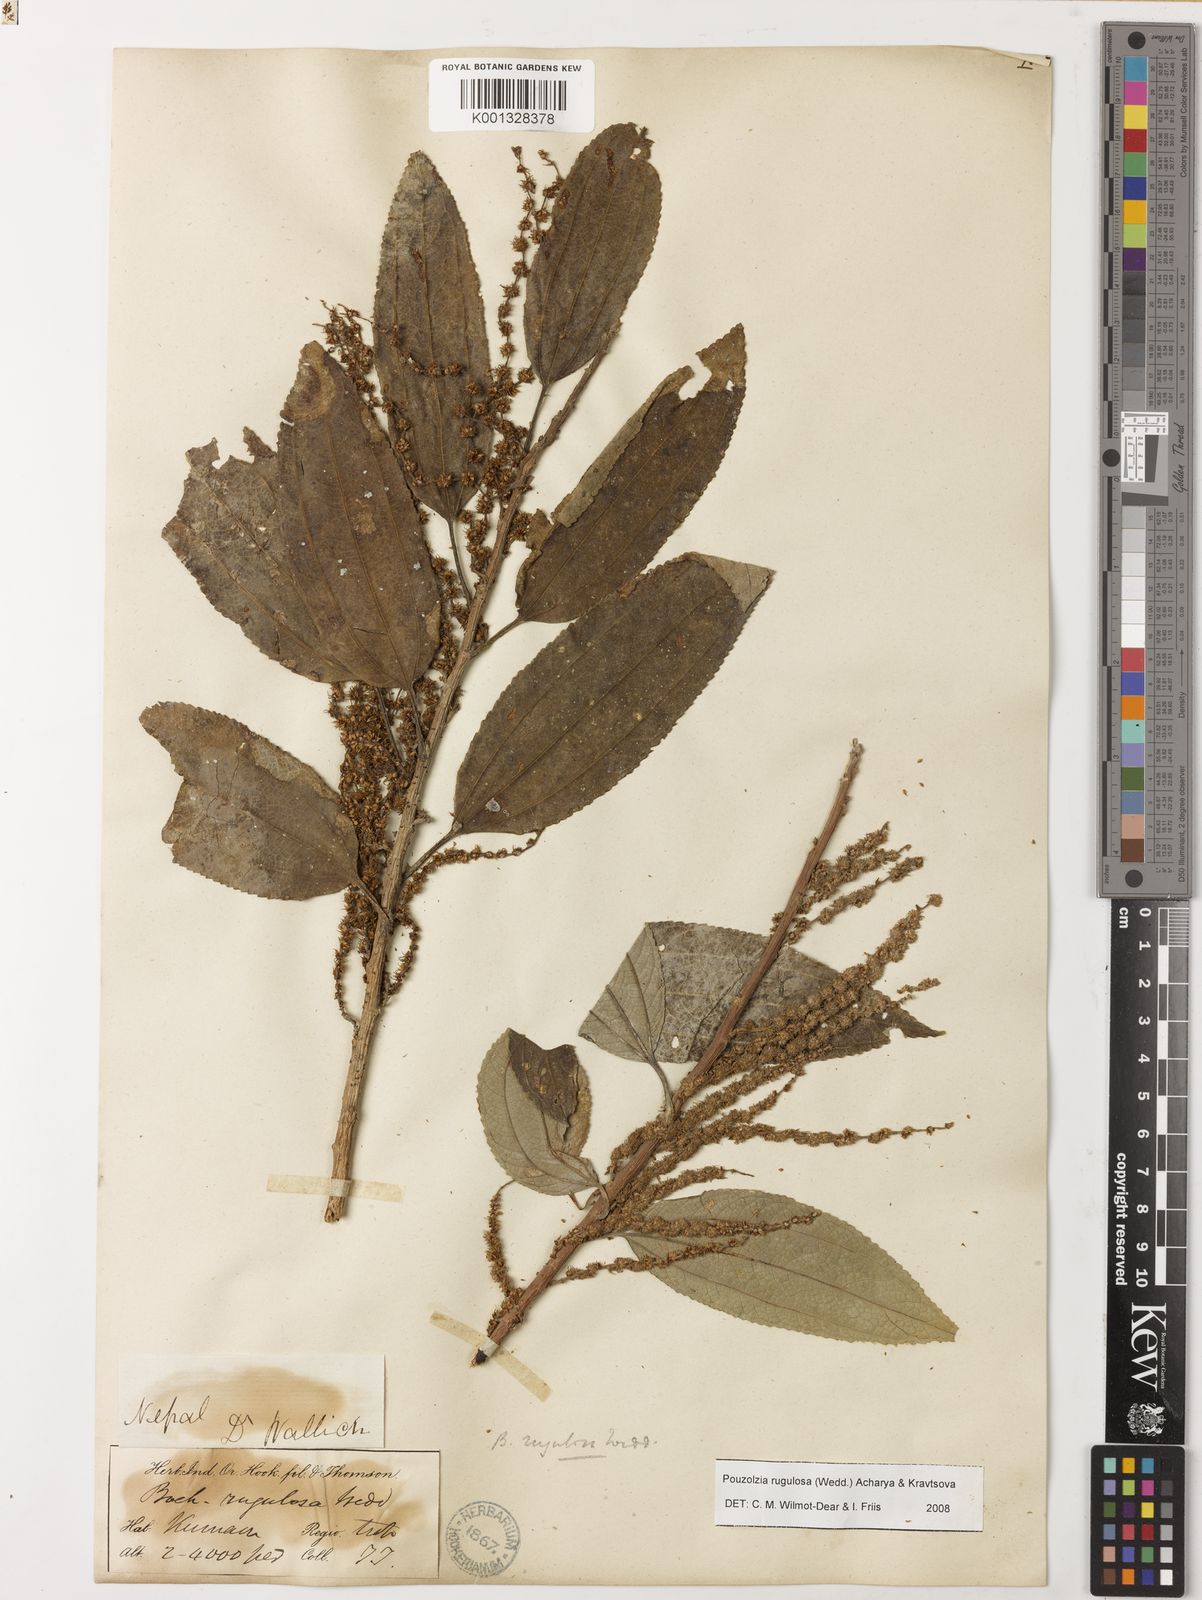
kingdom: Plantae
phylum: Tracheophyta
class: Magnoliopsida
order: Rosales
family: Urticaceae
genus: Pouzolzia
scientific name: Pouzolzia rugulosa
